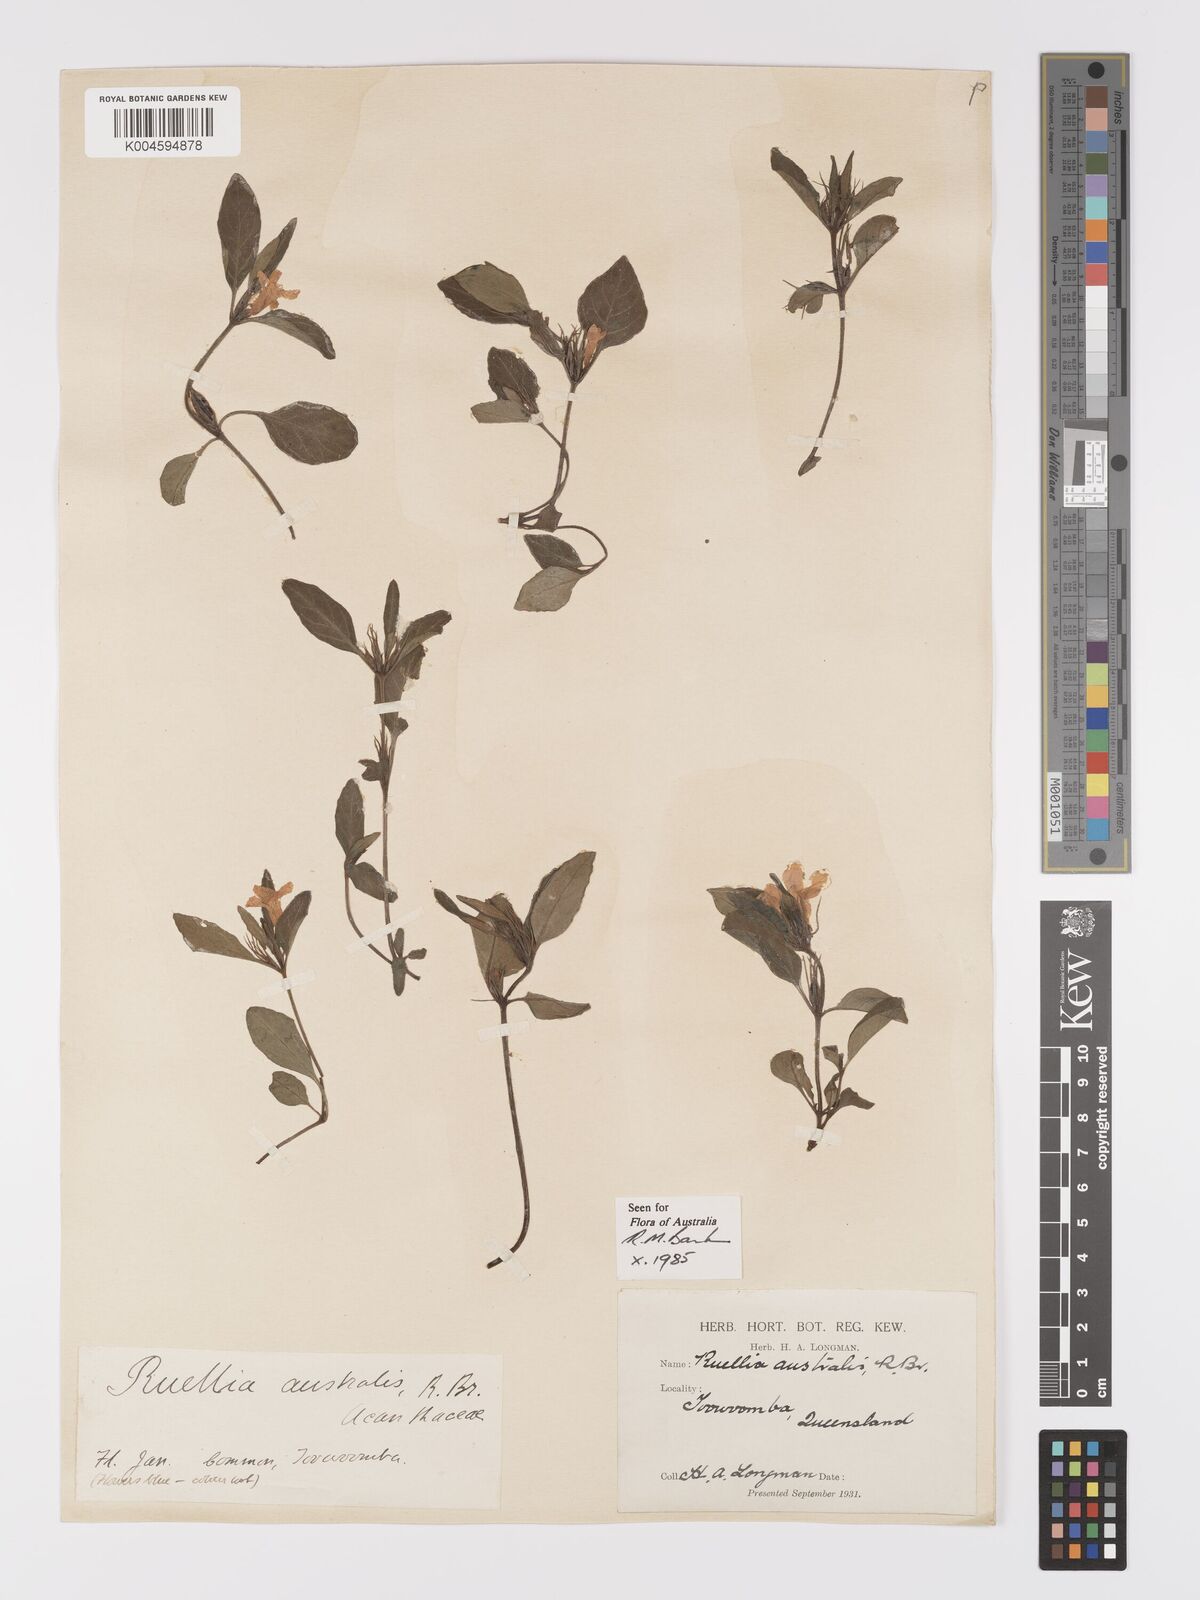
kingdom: Plantae
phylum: Tracheophyta
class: Magnoliopsida
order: Lamiales
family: Acanthaceae
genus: Brunoniella
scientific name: Brunoniella australis
